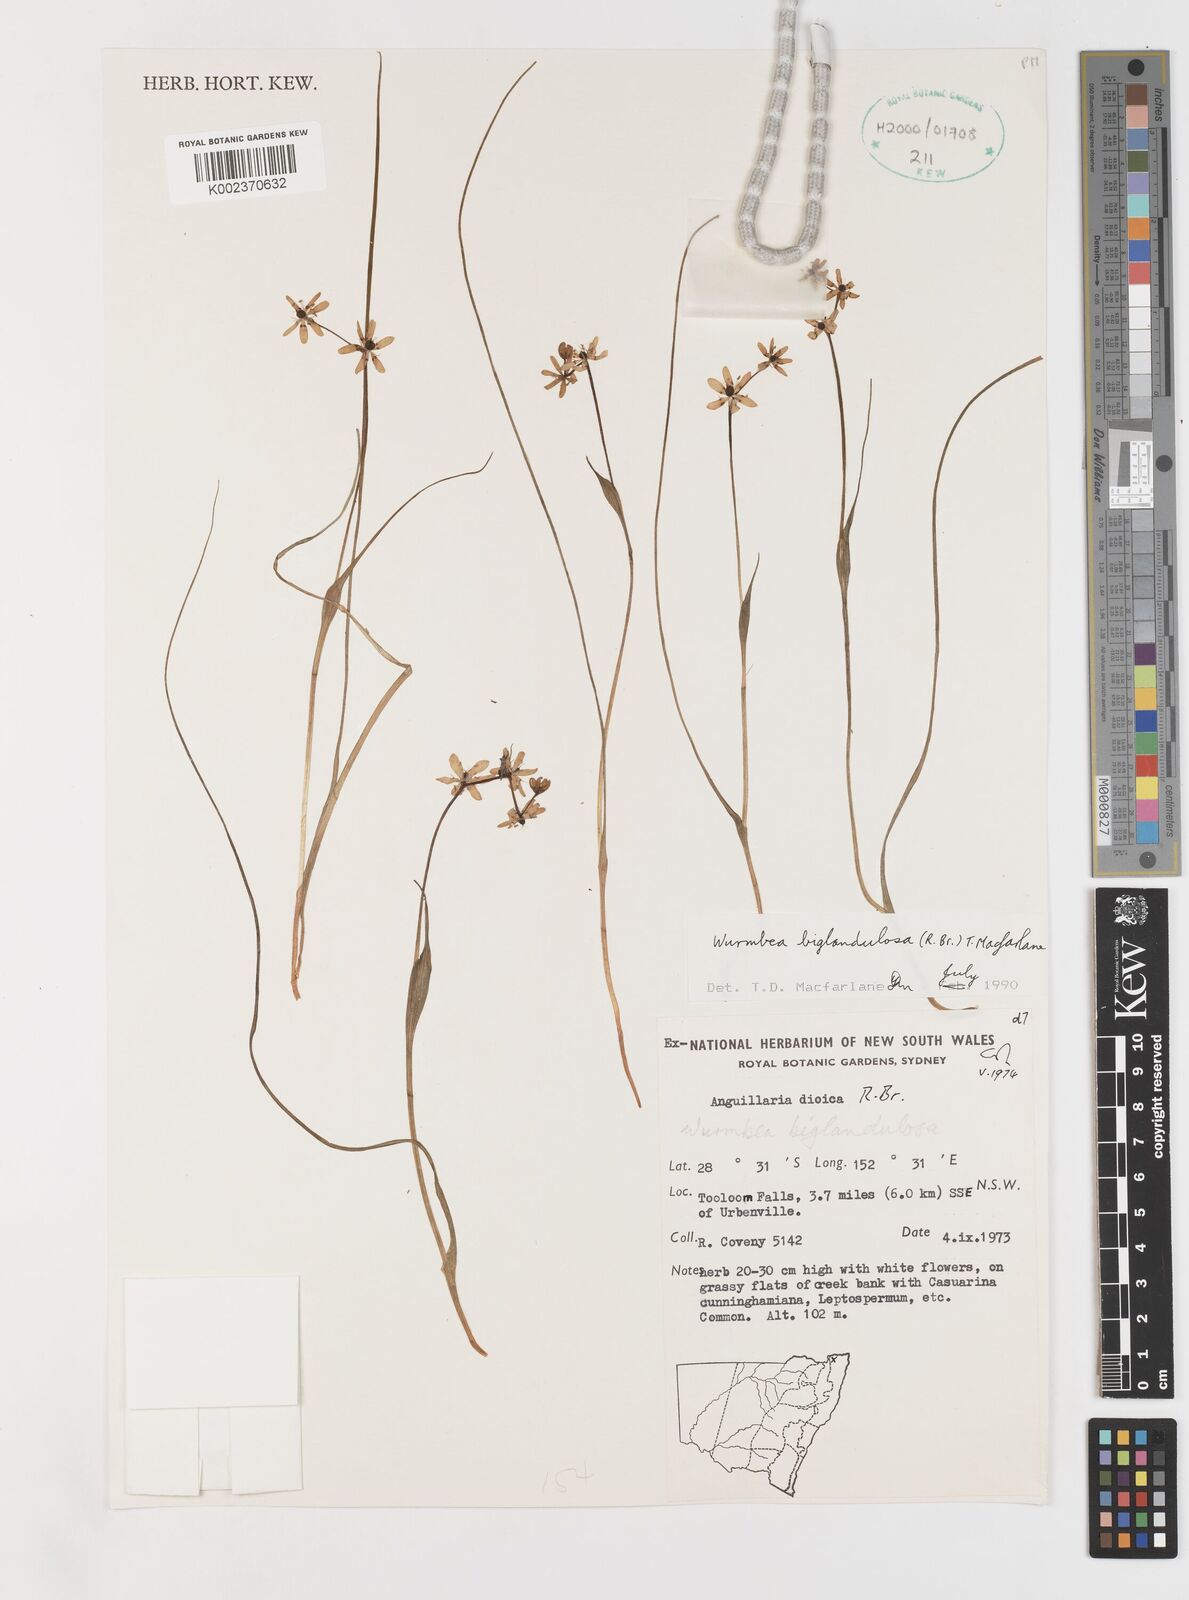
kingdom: Plantae
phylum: Tracheophyta
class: Liliopsida
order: Liliales
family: Colchicaceae
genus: Wurmbea
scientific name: Wurmbea biglandulosa
